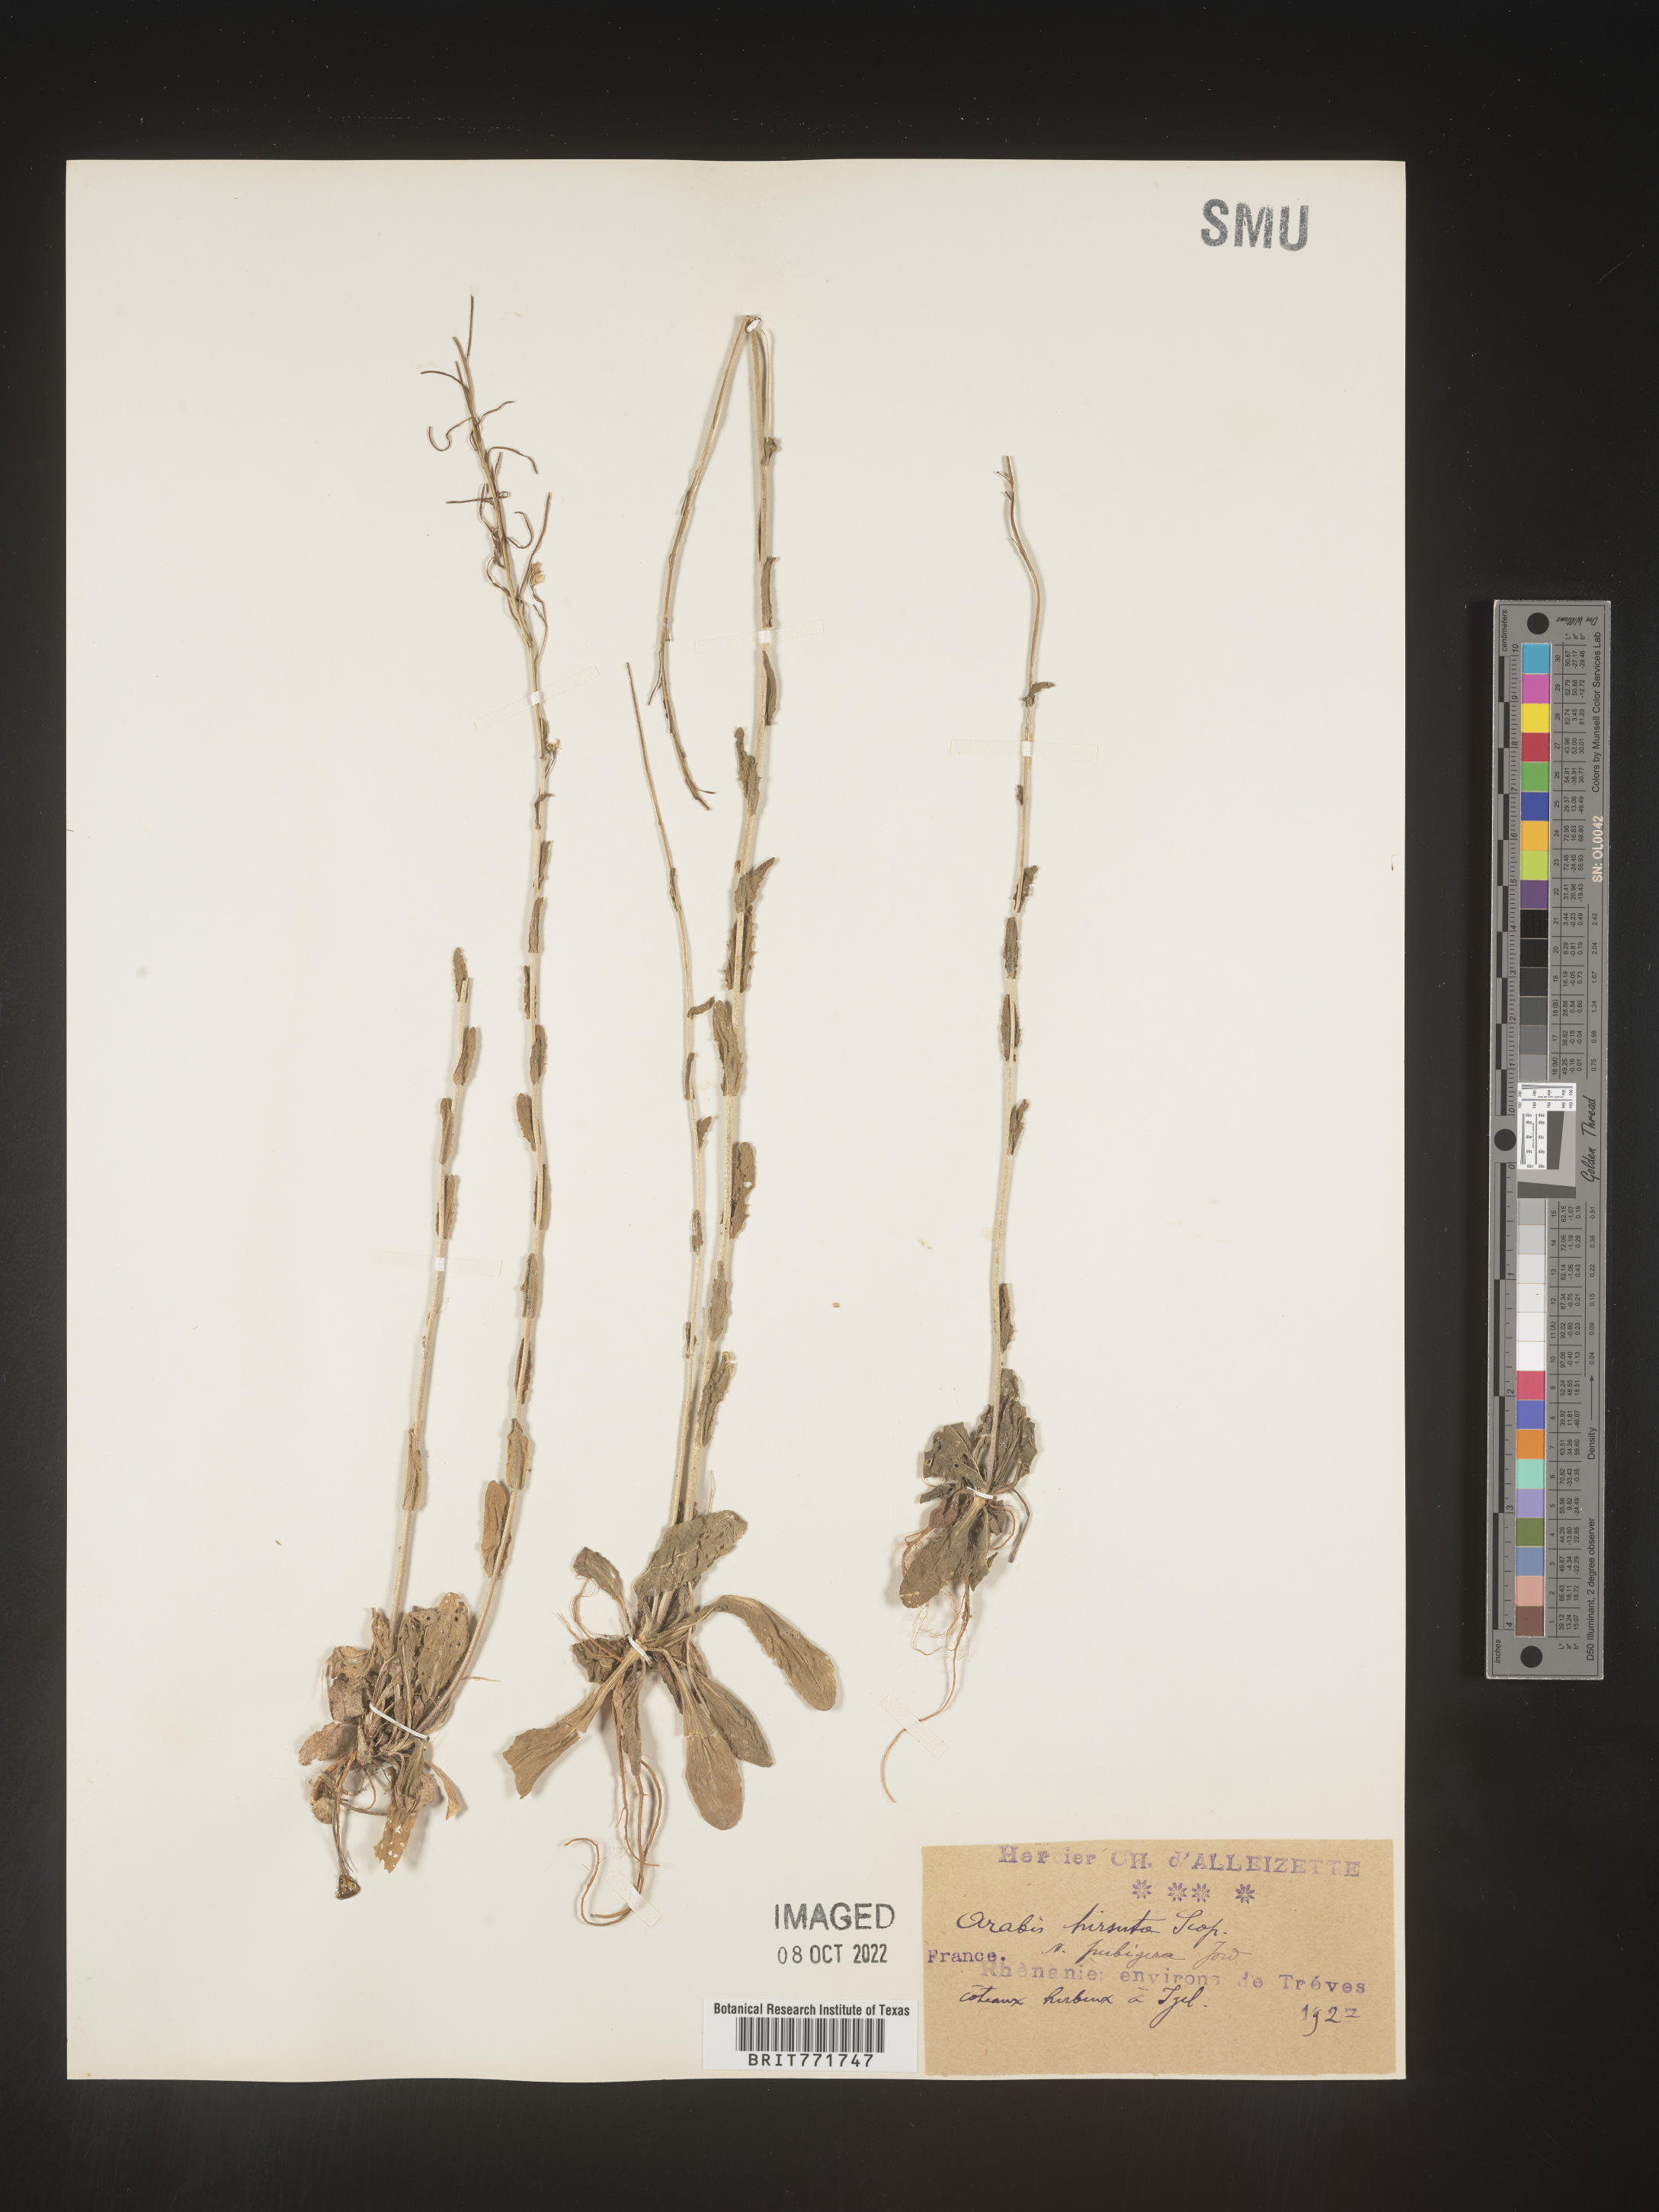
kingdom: Plantae
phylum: Tracheophyta
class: Magnoliopsida
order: Brassicales
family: Brassicaceae
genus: Arabis
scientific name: Arabis
